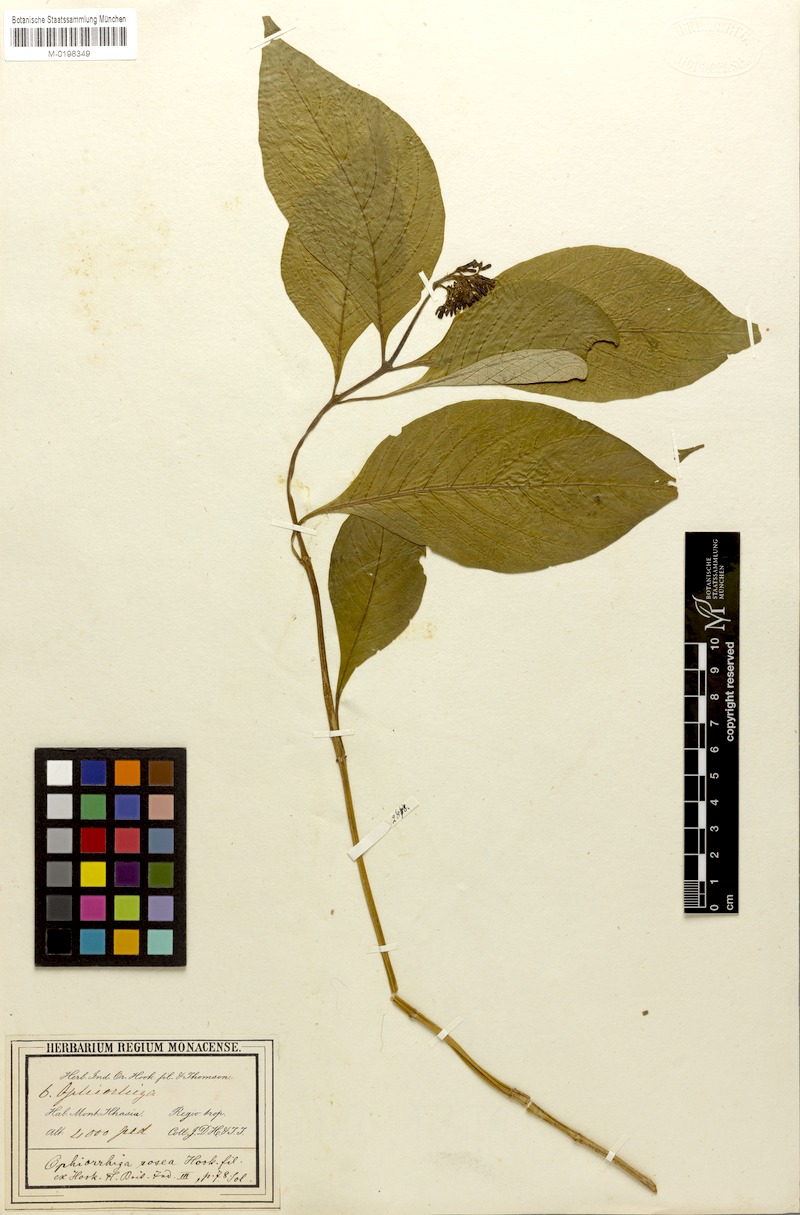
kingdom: Plantae
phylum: Tracheophyta
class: Magnoliopsida
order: Gentianales
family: Rubiaceae
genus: Ophiorrhiza
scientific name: Ophiorrhiza rosea
